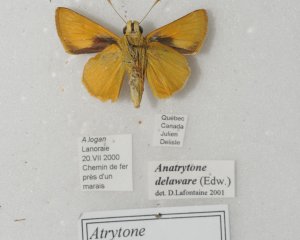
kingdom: Animalia
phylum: Arthropoda
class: Insecta
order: Lepidoptera
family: Hesperiidae
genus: Atrytone
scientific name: Atrytone delaware
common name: Delaware Skipper
